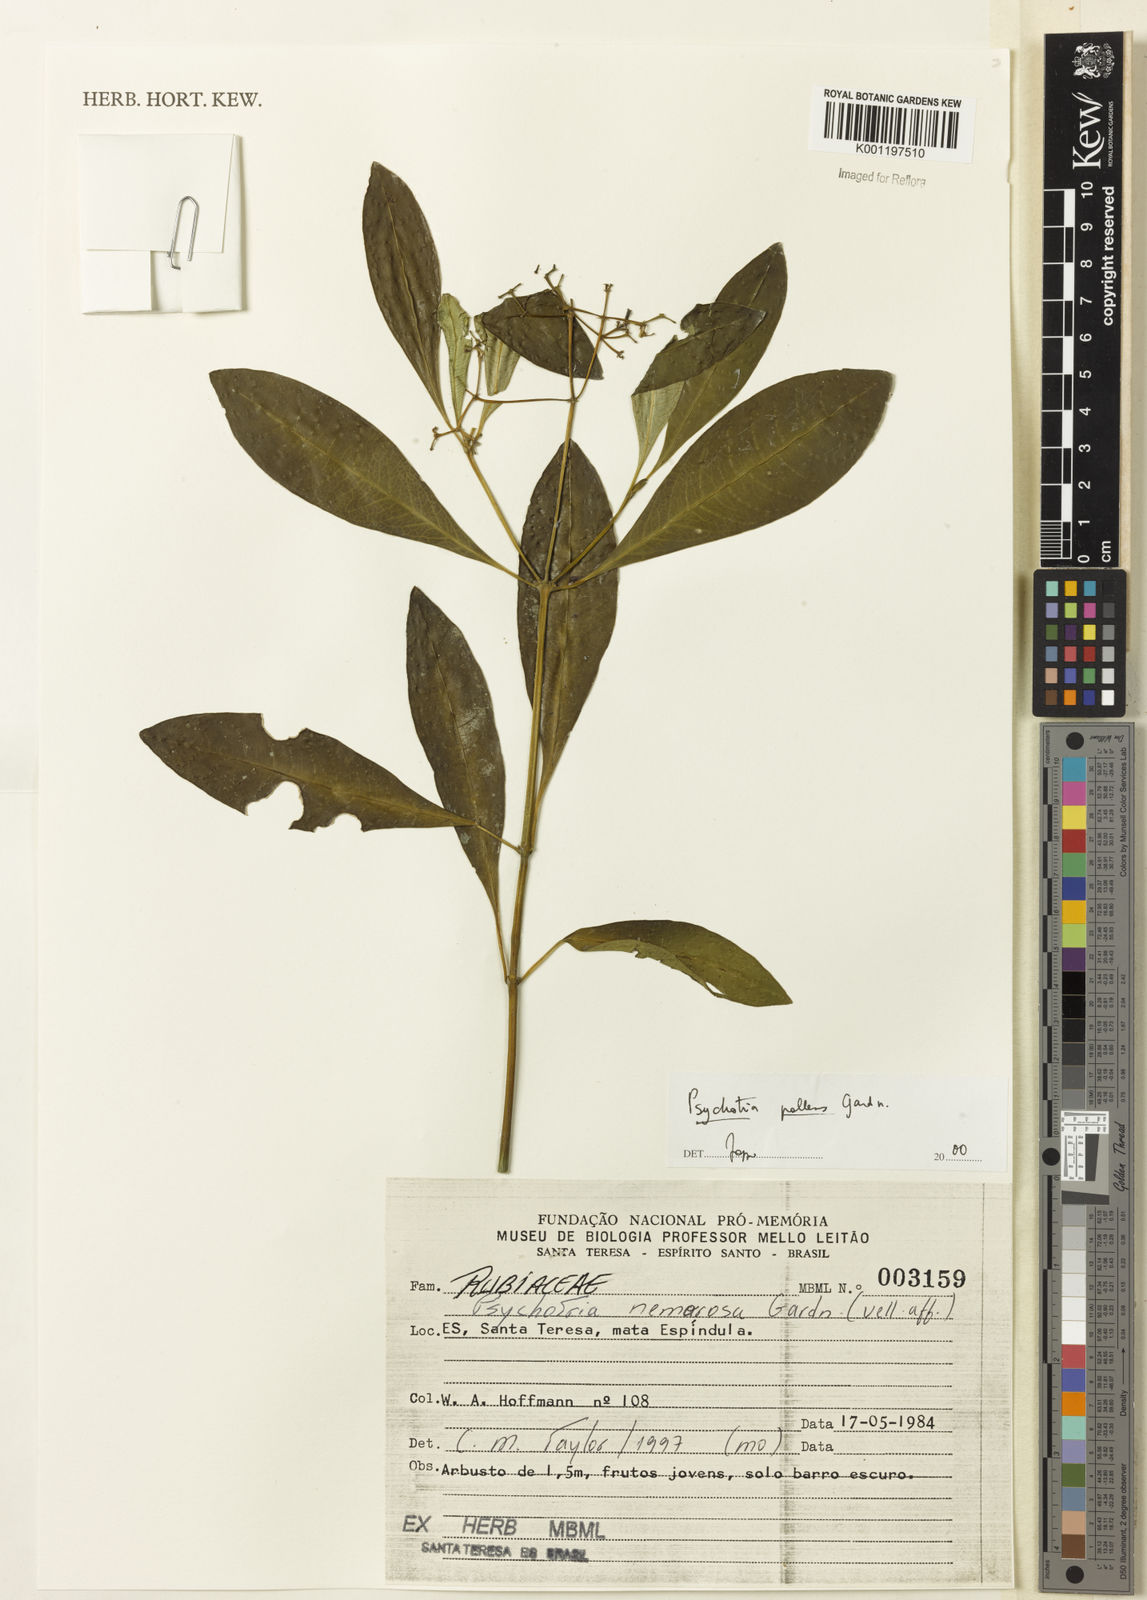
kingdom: Plantae
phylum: Tracheophyta
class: Magnoliopsida
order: Gentianales
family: Rubiaceae
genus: Psychotria
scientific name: Psychotria pallens
